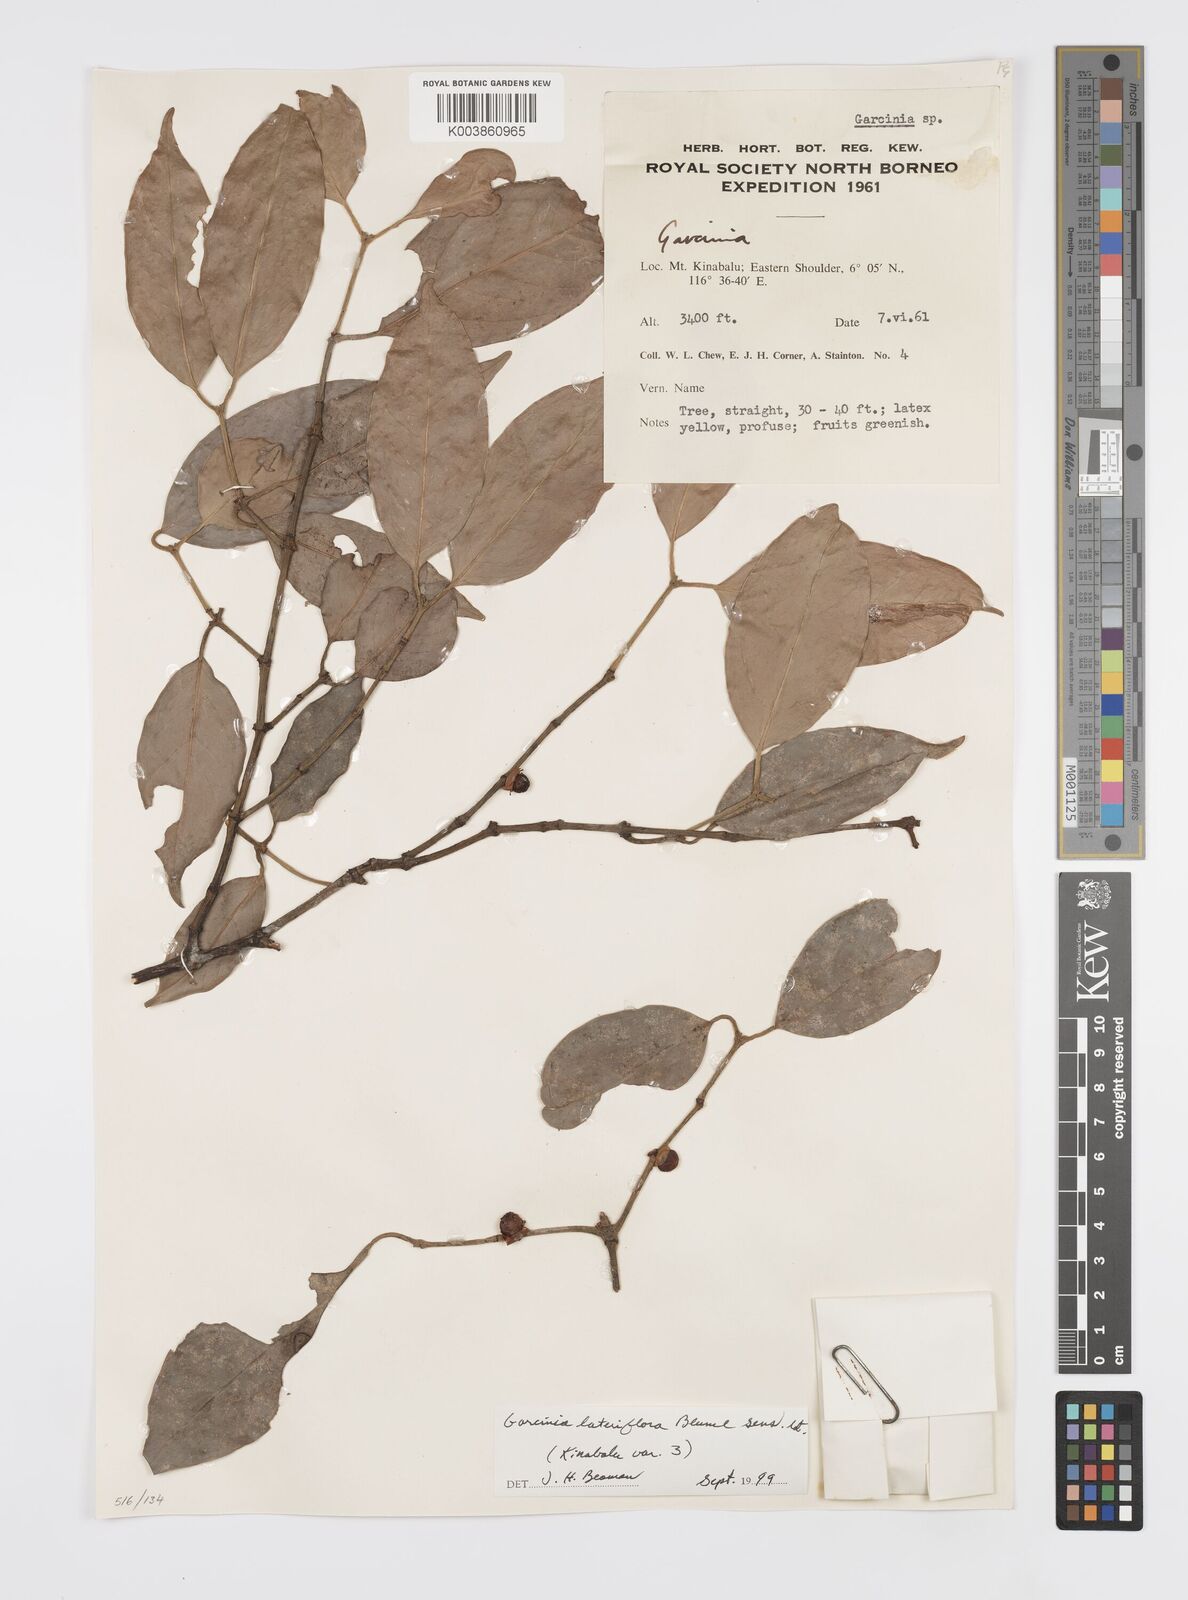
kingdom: Plantae
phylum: Tracheophyta
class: Magnoliopsida
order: Malpighiales
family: Clusiaceae
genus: Garcinia
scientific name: Garcinia lateriflora
